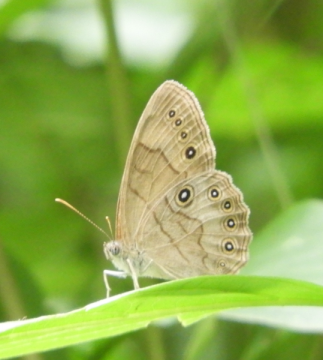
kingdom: Animalia
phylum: Arthropoda
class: Insecta
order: Lepidoptera
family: Nymphalidae
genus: Lethe
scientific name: Lethe eurydice
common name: Appalachian Eyed Brown
